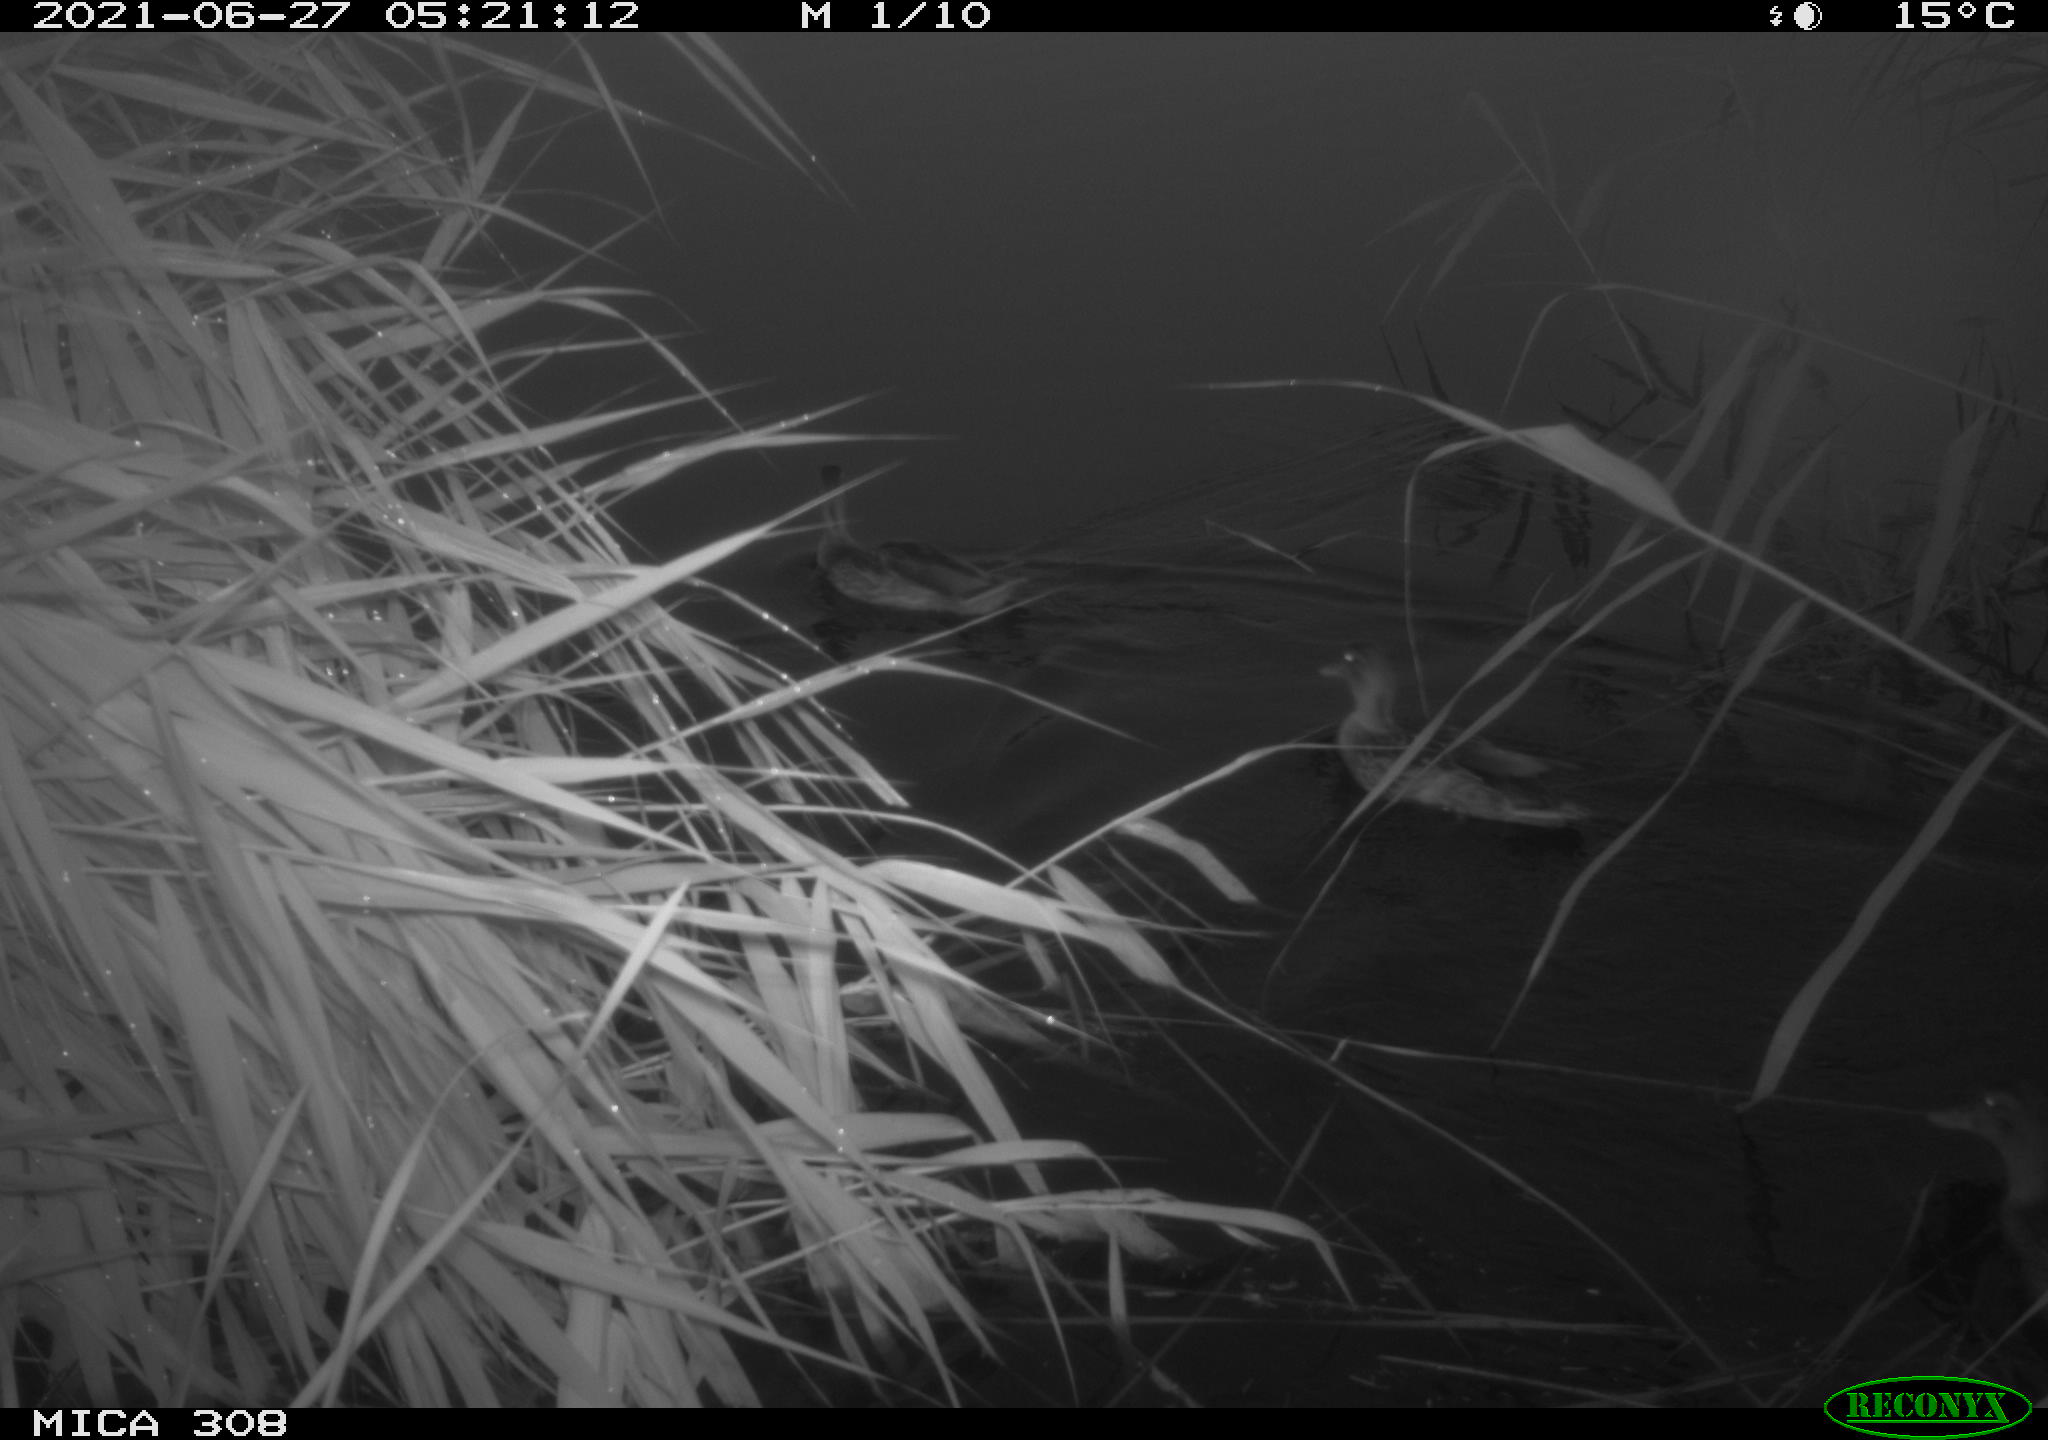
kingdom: Animalia
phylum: Chordata
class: Aves
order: Anseriformes
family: Anatidae
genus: Anas
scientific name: Anas platyrhynchos
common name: Mallard
